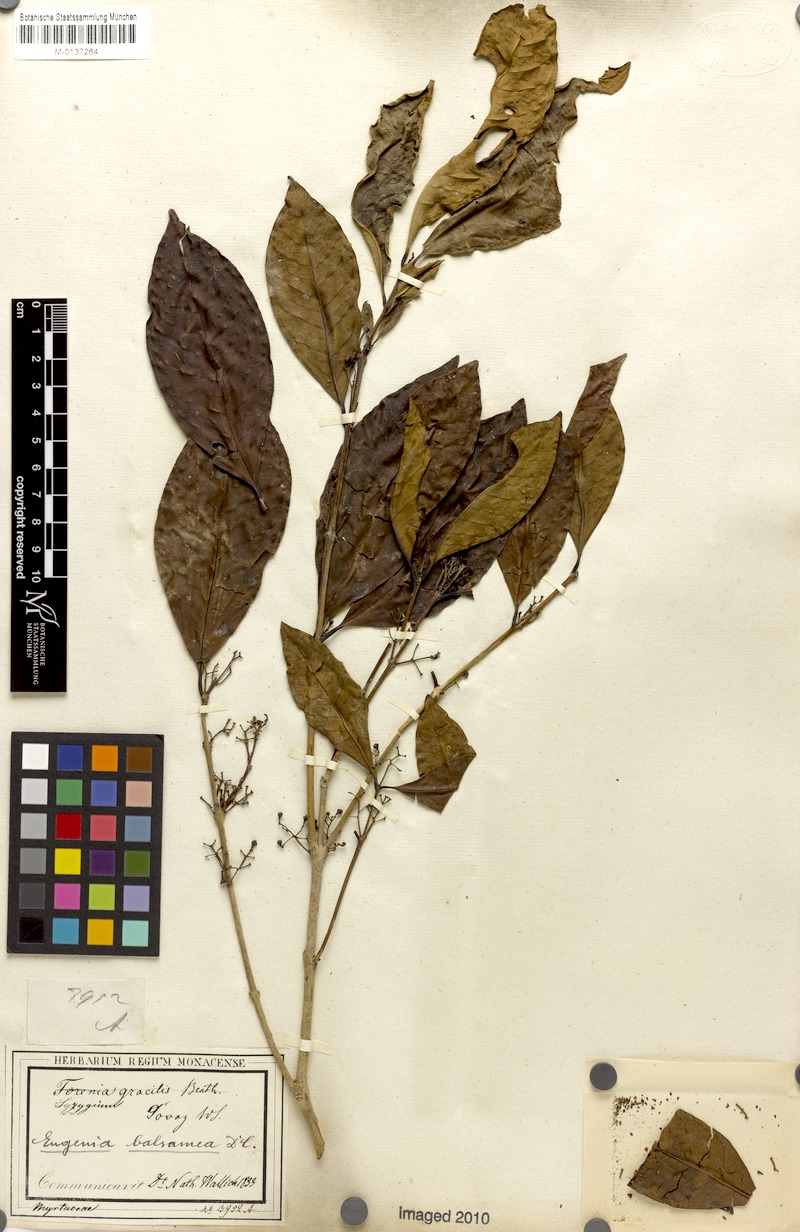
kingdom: Plantae
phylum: Tracheophyta
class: Magnoliopsida
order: Myrtales
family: Myrtaceae
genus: Syzygium
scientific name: Syzygium balsameum
